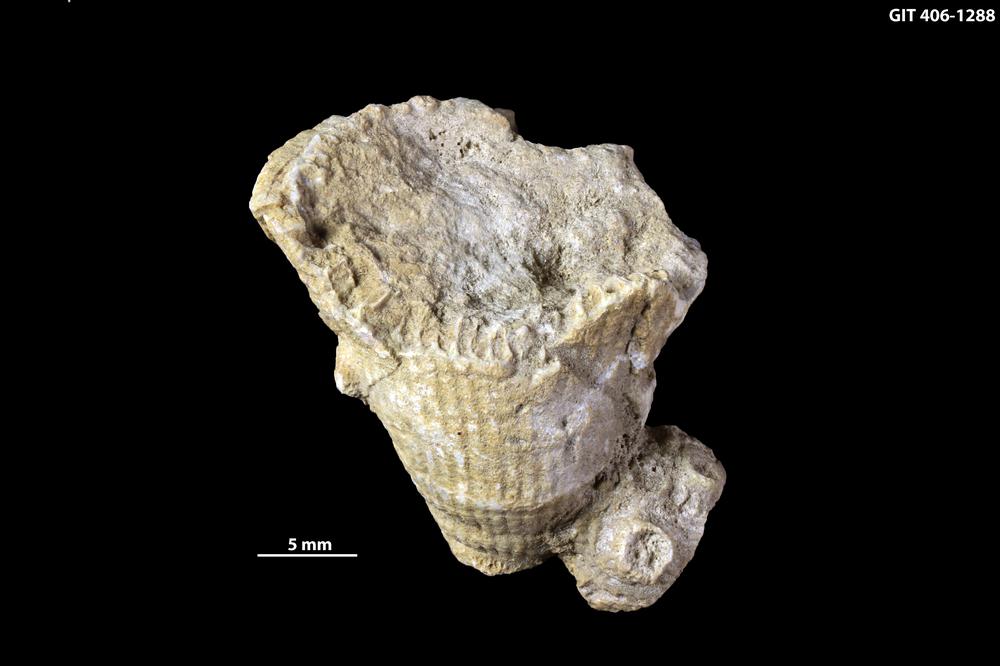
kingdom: Animalia
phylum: Cnidaria
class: Anthozoa
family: Kodonophyllidae
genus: Kodonophyllum
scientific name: Kodonophyllum
